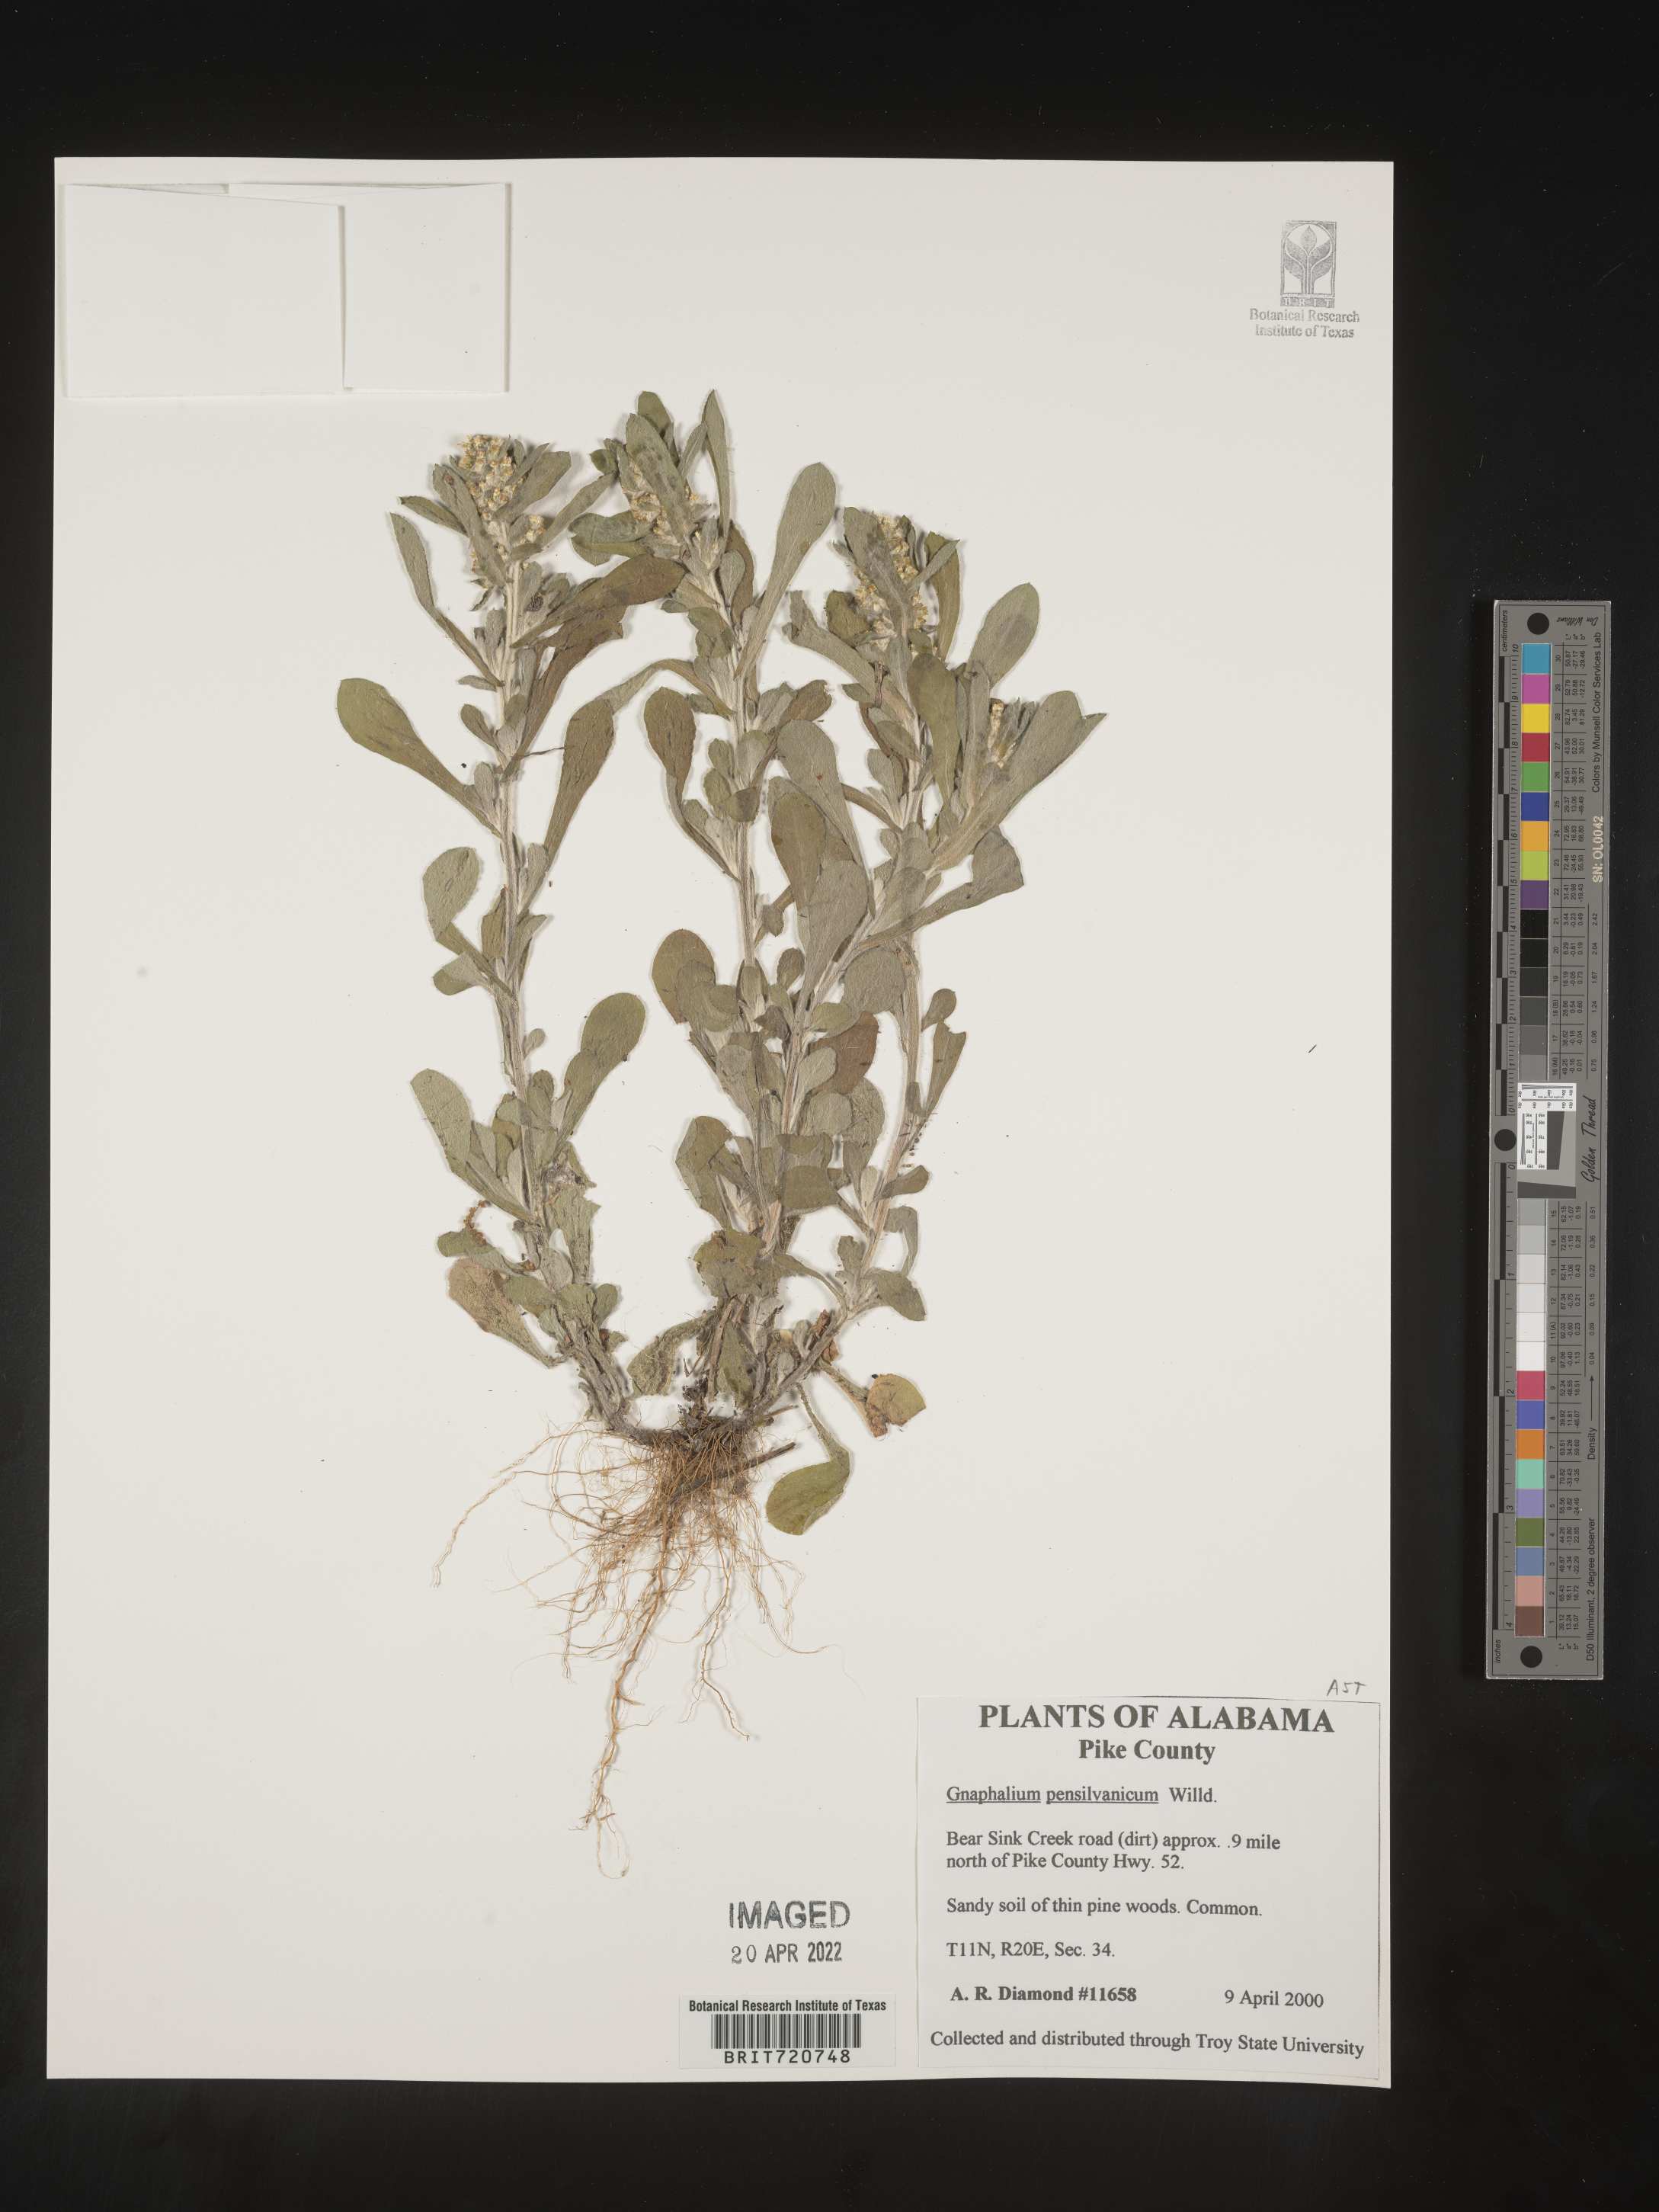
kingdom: Plantae
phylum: Tracheophyta
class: Magnoliopsida
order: Asterales
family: Asteraceae
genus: Gnaphalium
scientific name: Gnaphalium
